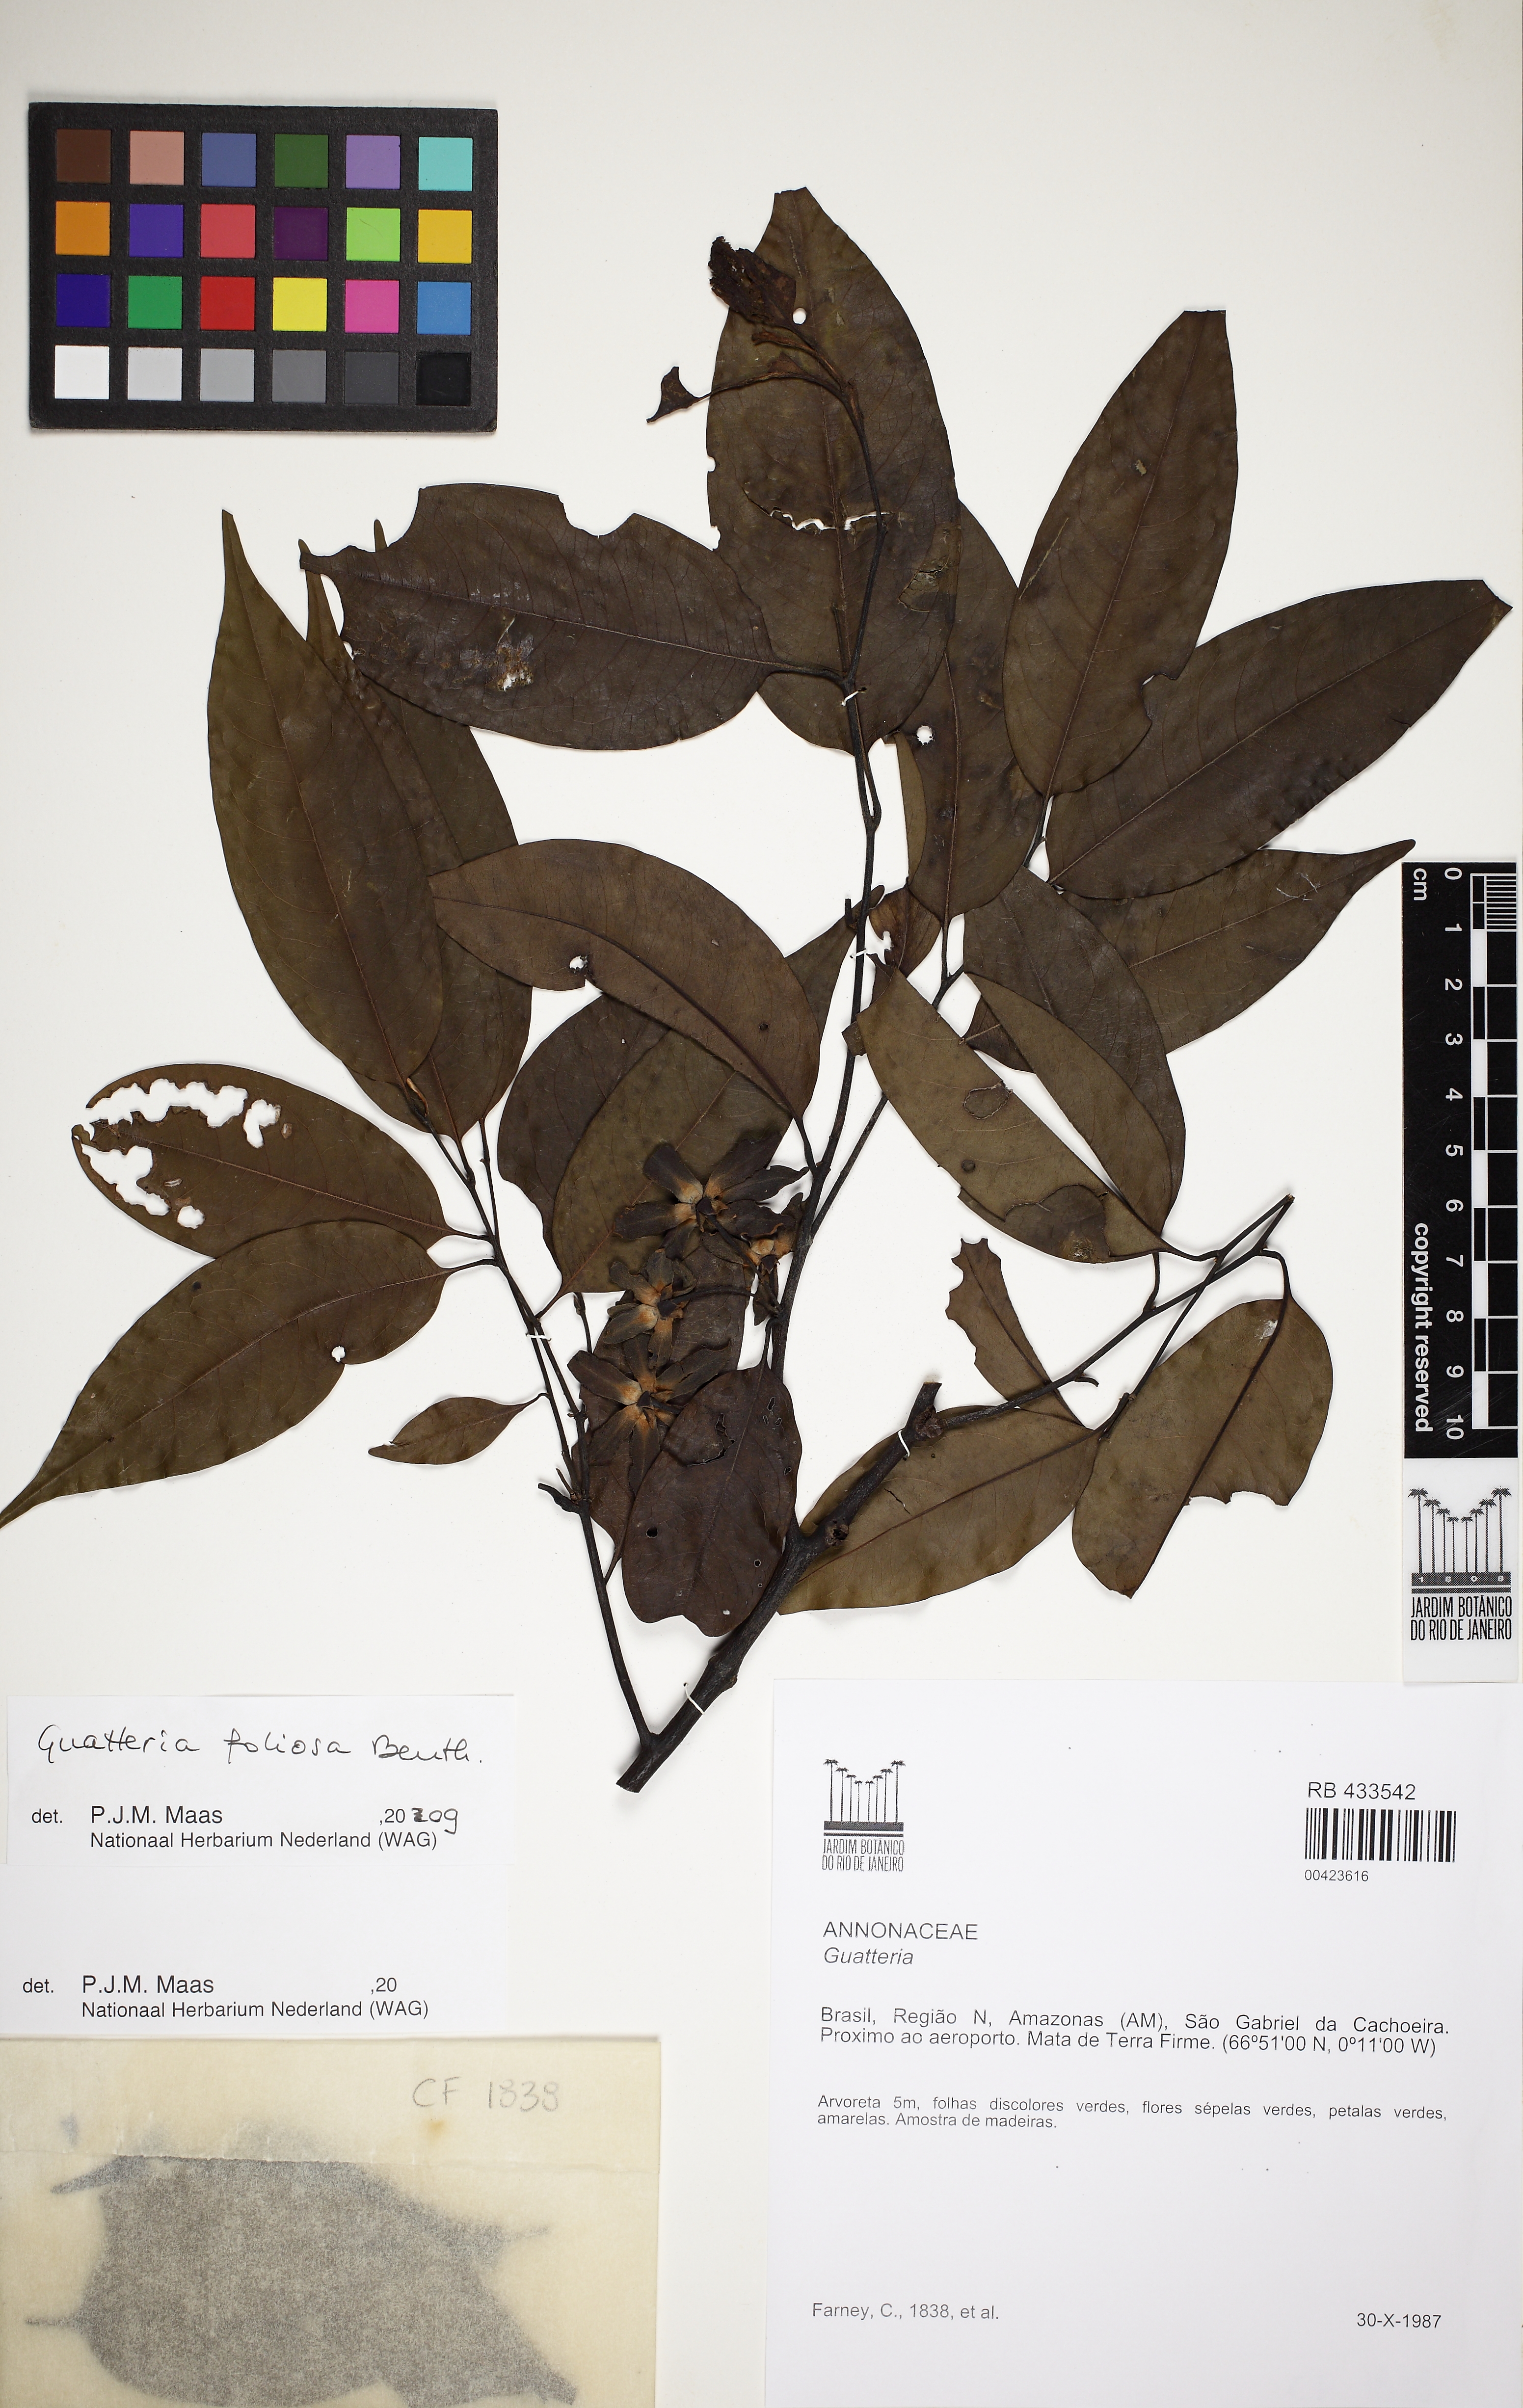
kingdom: Plantae
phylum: Tracheophyta
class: Magnoliopsida
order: Magnoliales
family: Annonaceae
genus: Guatteria
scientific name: Guatteria foliosa
